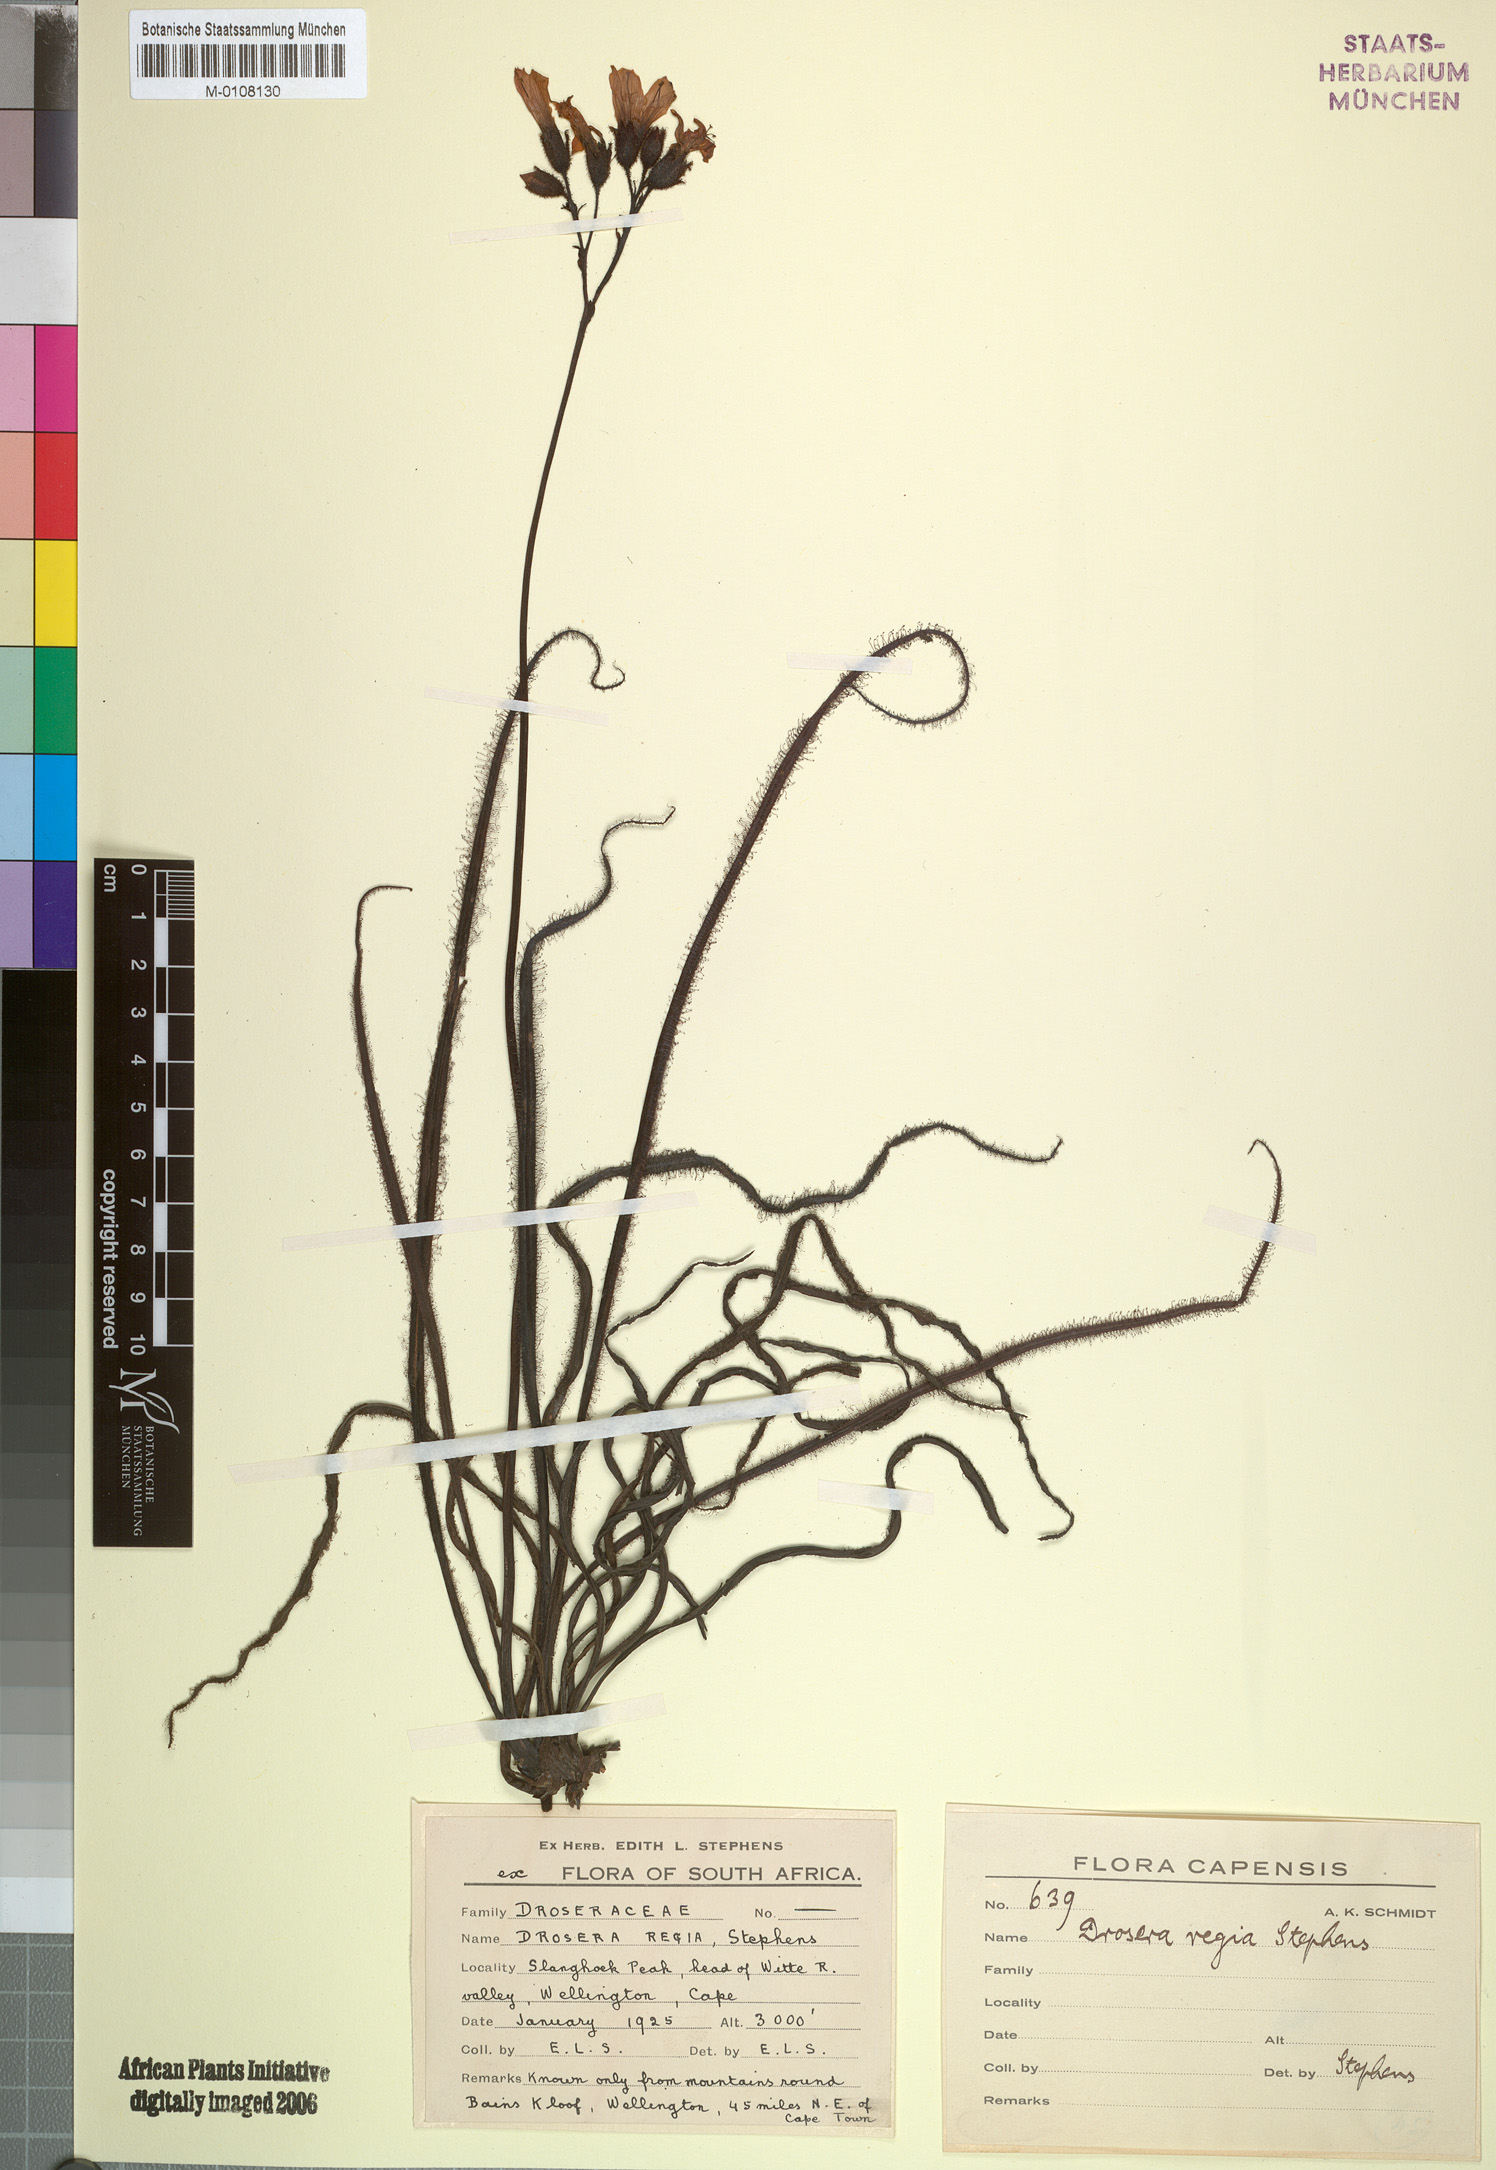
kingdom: Plantae
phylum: Tracheophyta
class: Magnoliopsida
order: Caryophyllales
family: Droseraceae
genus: Drosera
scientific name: Drosera regia
